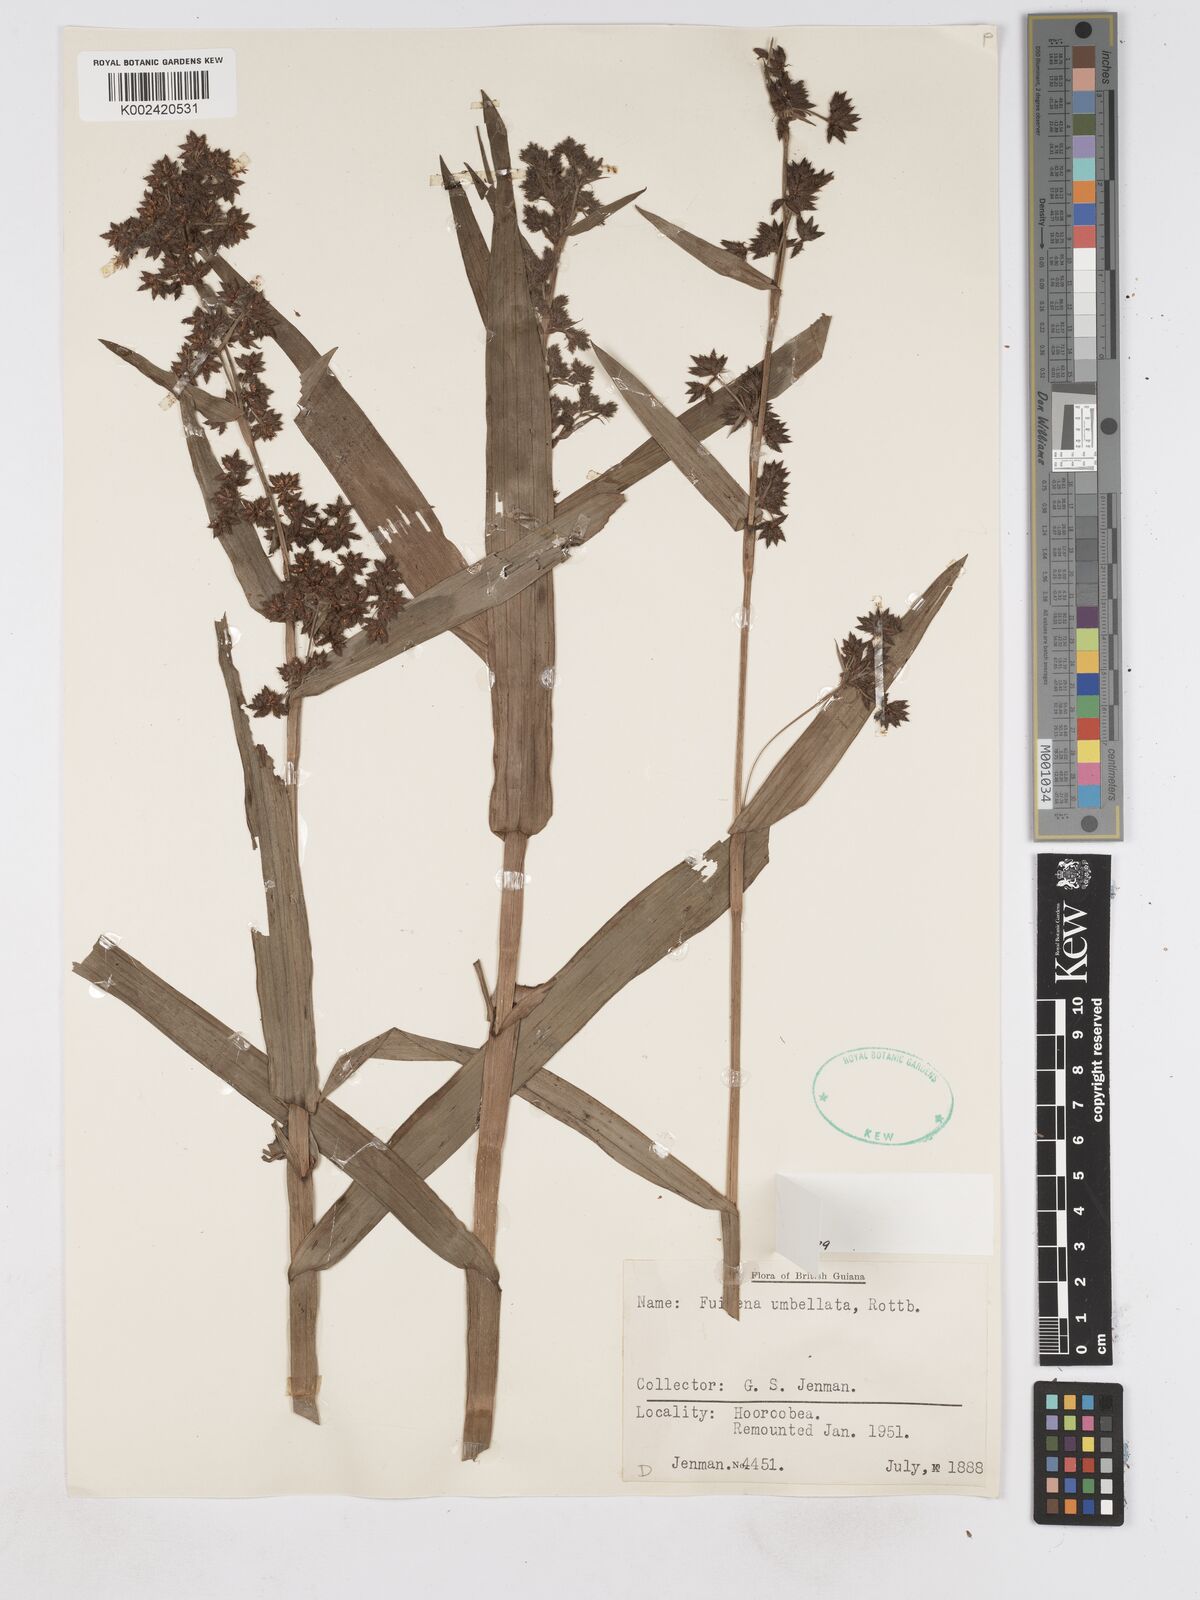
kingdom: Plantae
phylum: Tracheophyta
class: Liliopsida
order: Poales
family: Cyperaceae
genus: Fuirena
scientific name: Fuirena umbellata
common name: Yefen
